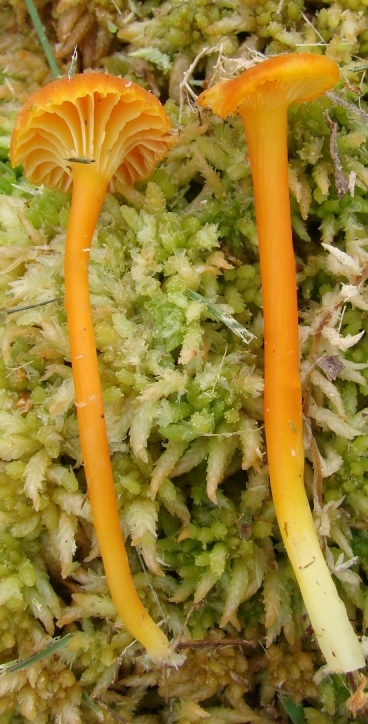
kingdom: Fungi
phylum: Basidiomycota
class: Agaricomycetes
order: Agaricales
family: Hygrophoraceae
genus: Hygrocybe
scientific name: Hygrocybe cantharellus
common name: kantarel-vokshat
